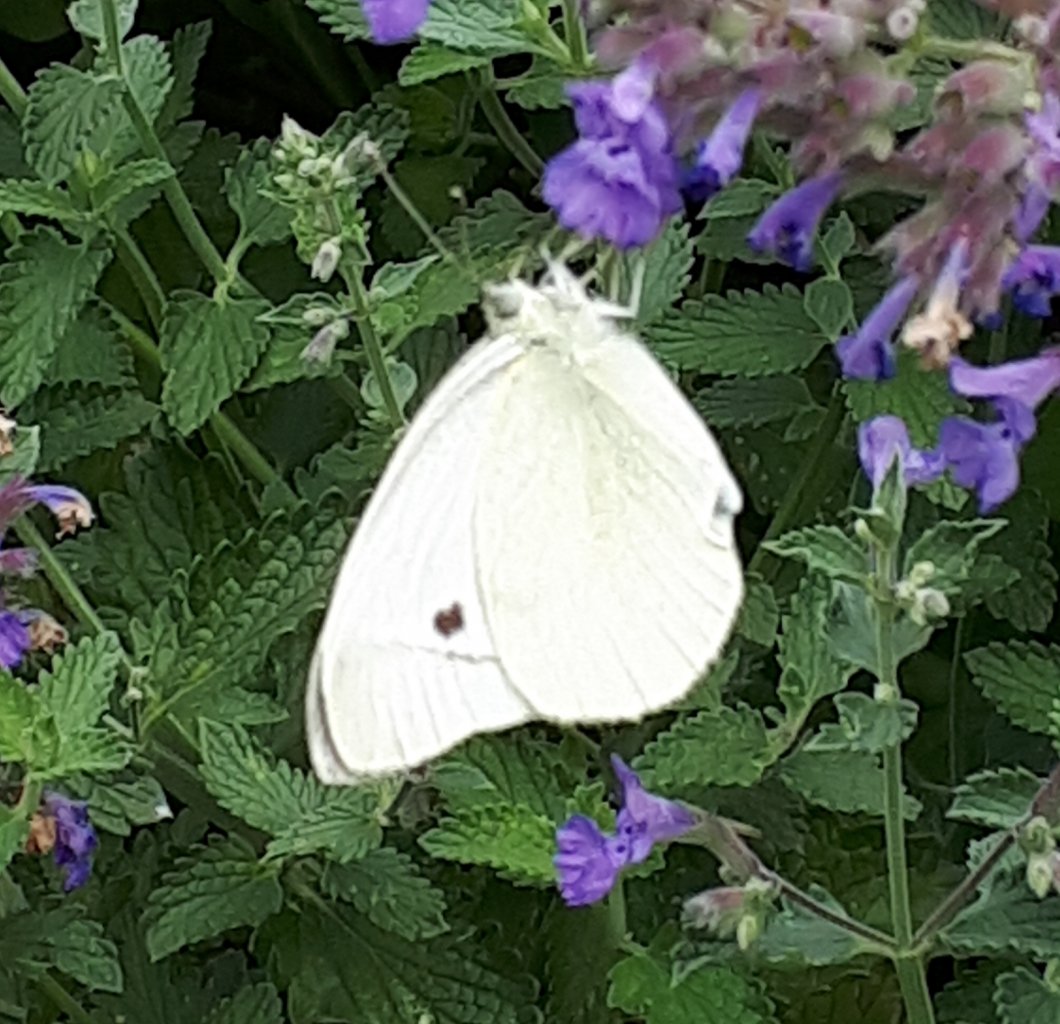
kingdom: Animalia
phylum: Arthropoda
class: Insecta
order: Lepidoptera
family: Pieridae
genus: Pieris
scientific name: Pieris rapae
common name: Cabbage White
